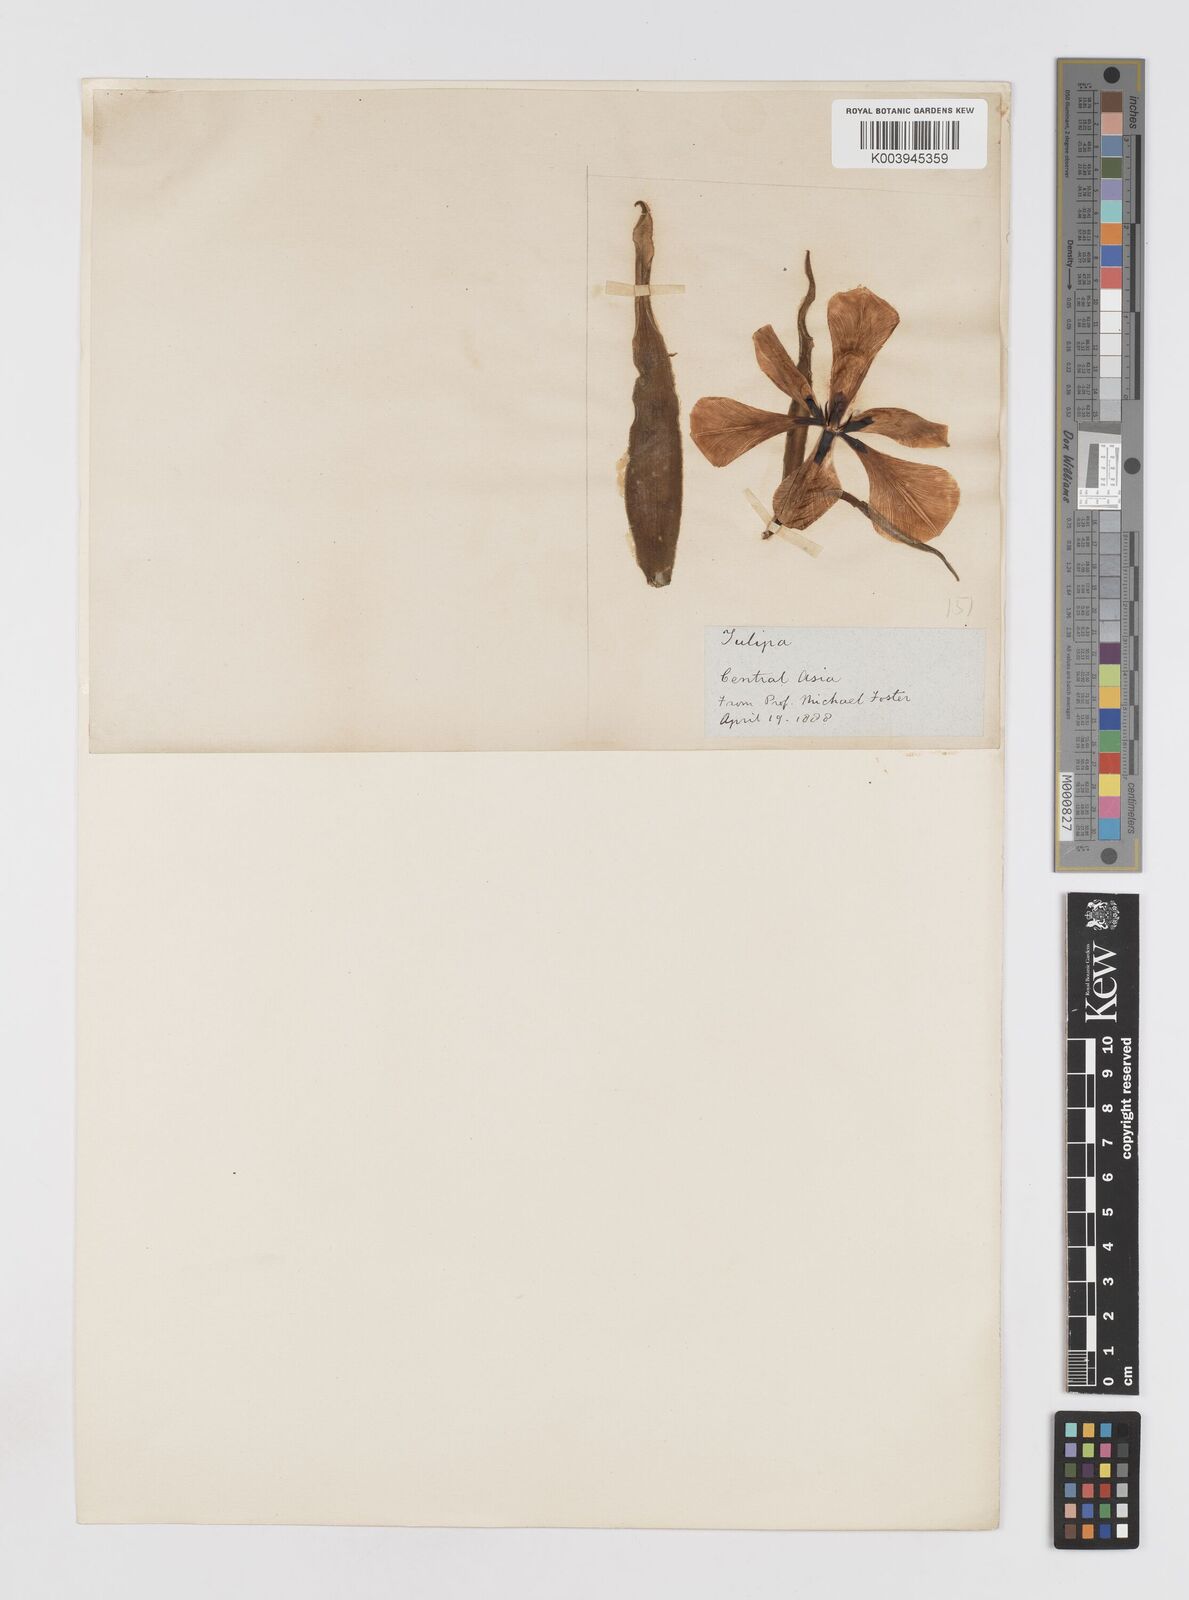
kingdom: Plantae
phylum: Tracheophyta
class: Liliopsida
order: Liliales
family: Liliaceae
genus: Tulipa
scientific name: Tulipa
